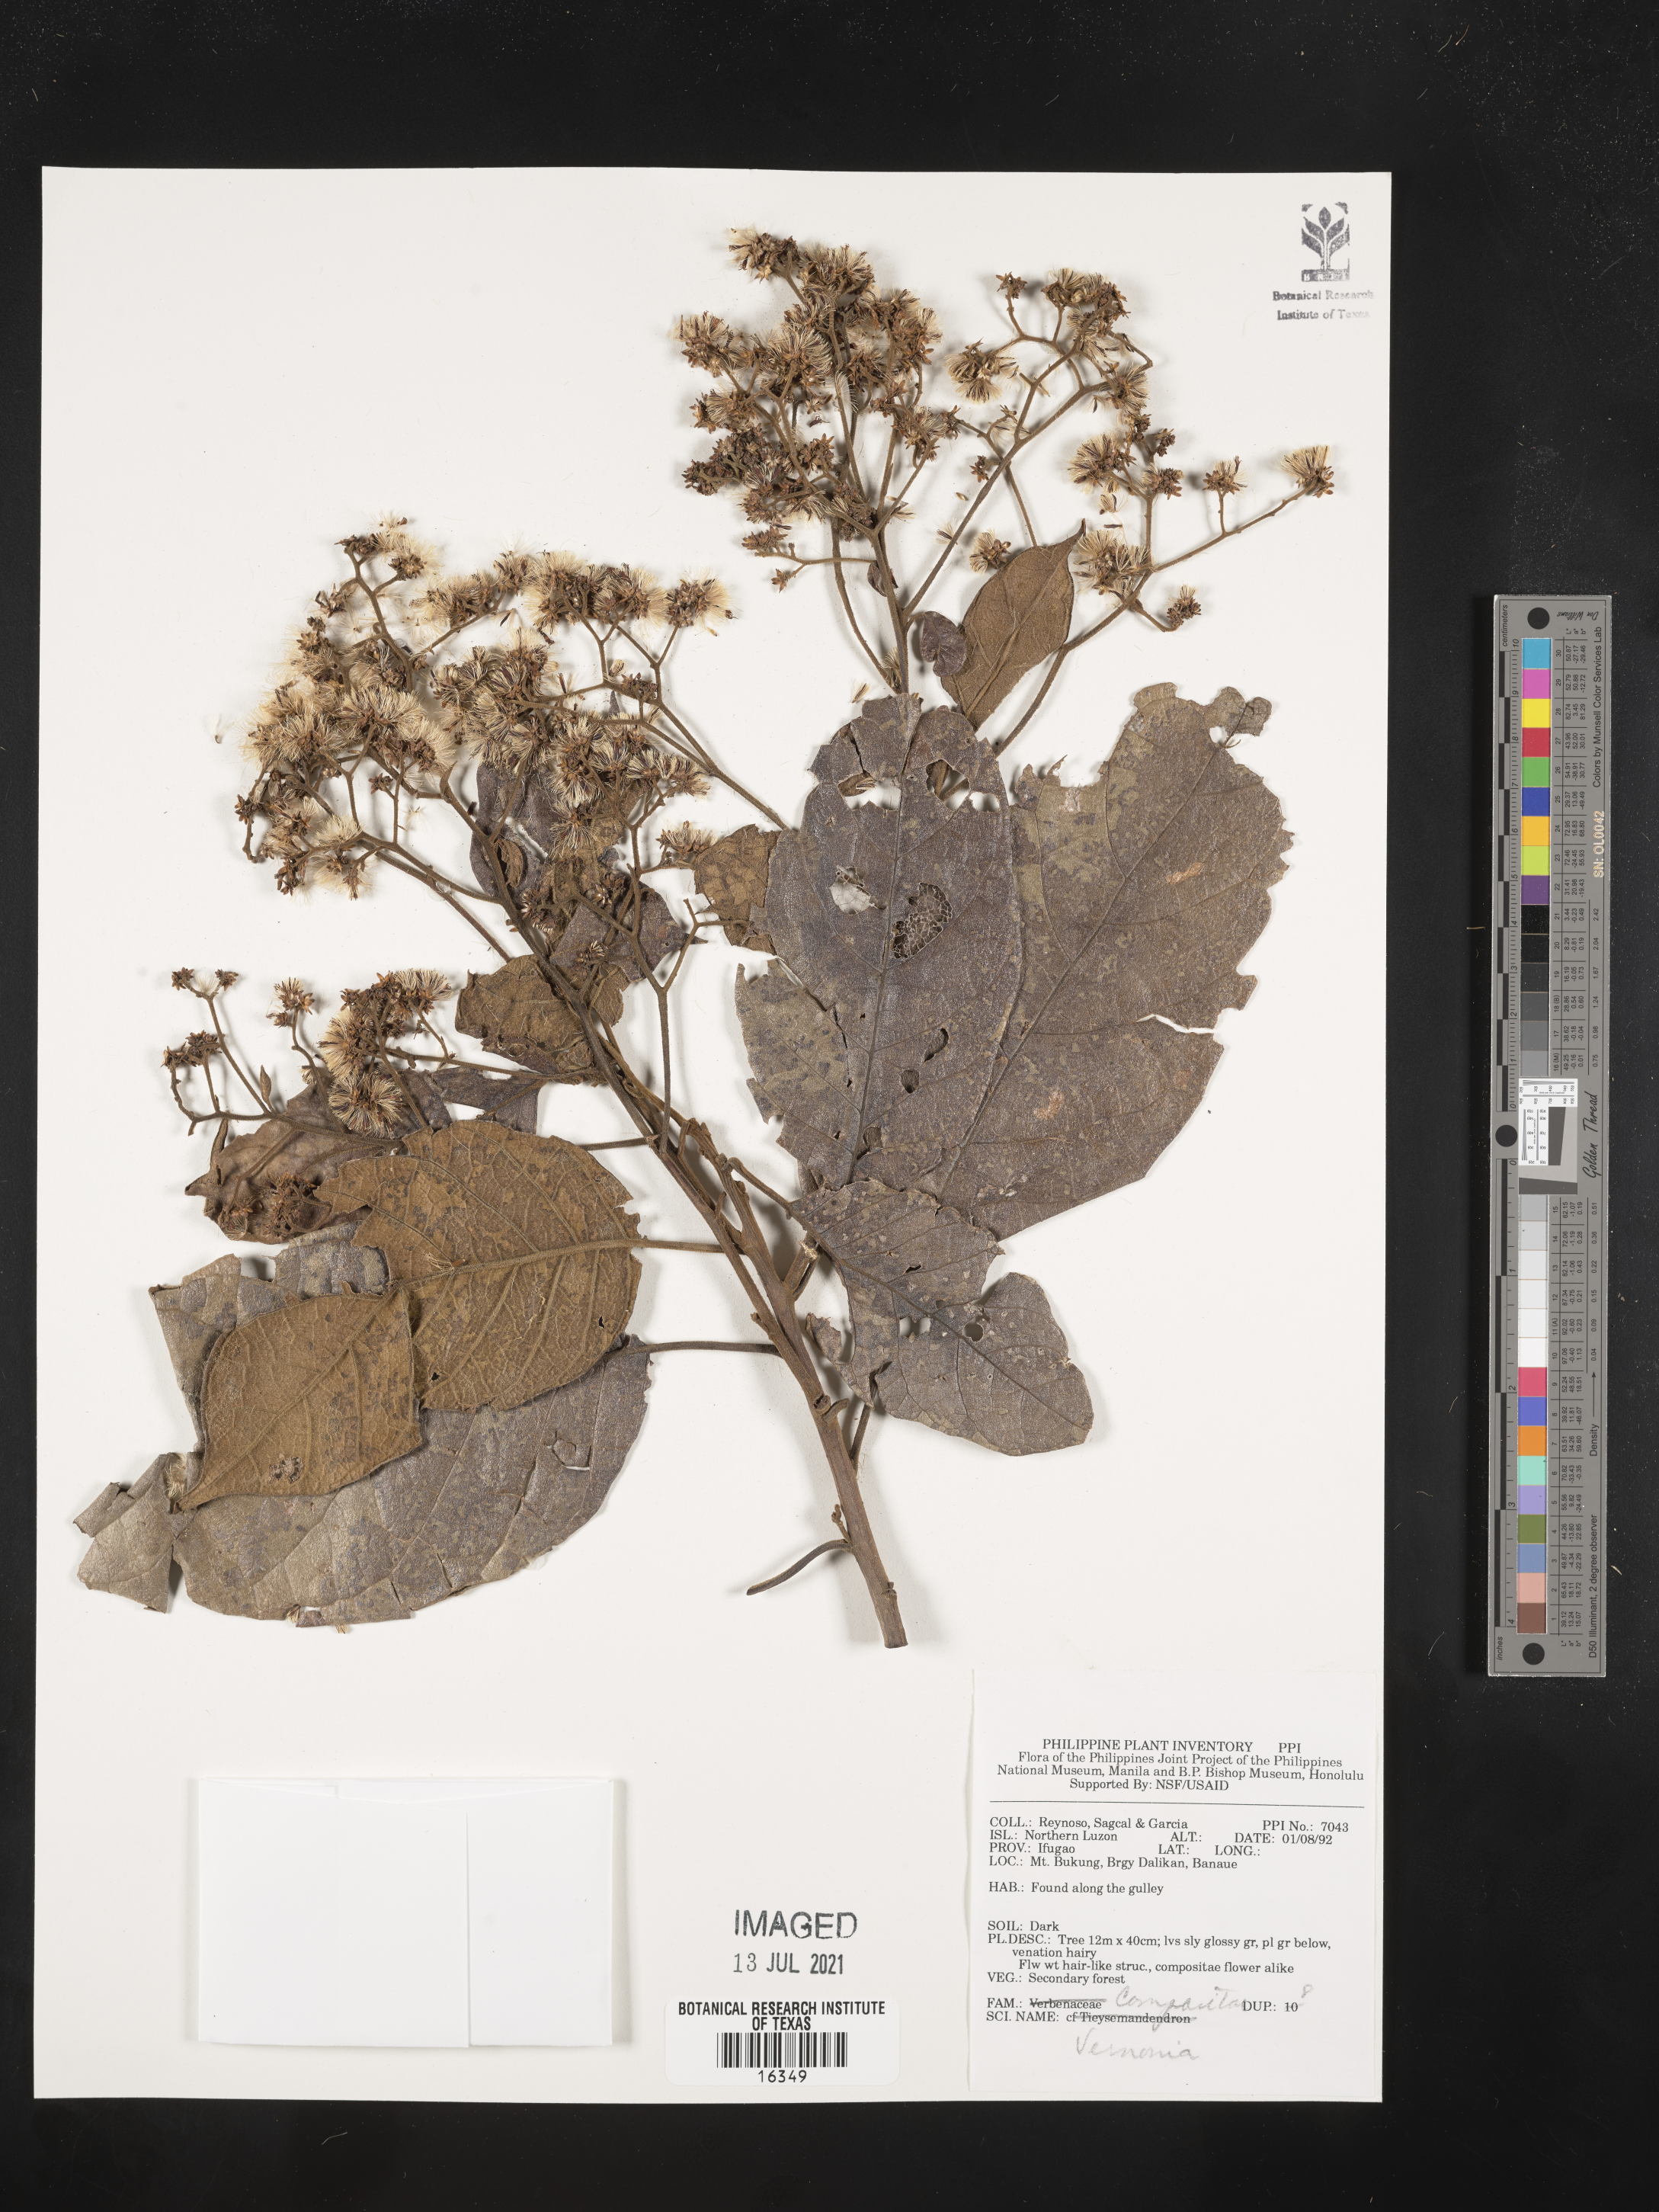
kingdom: Plantae
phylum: Tracheophyta
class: Magnoliopsida
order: Asterales
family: Asteraceae
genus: Vernonia
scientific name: Vernonia
